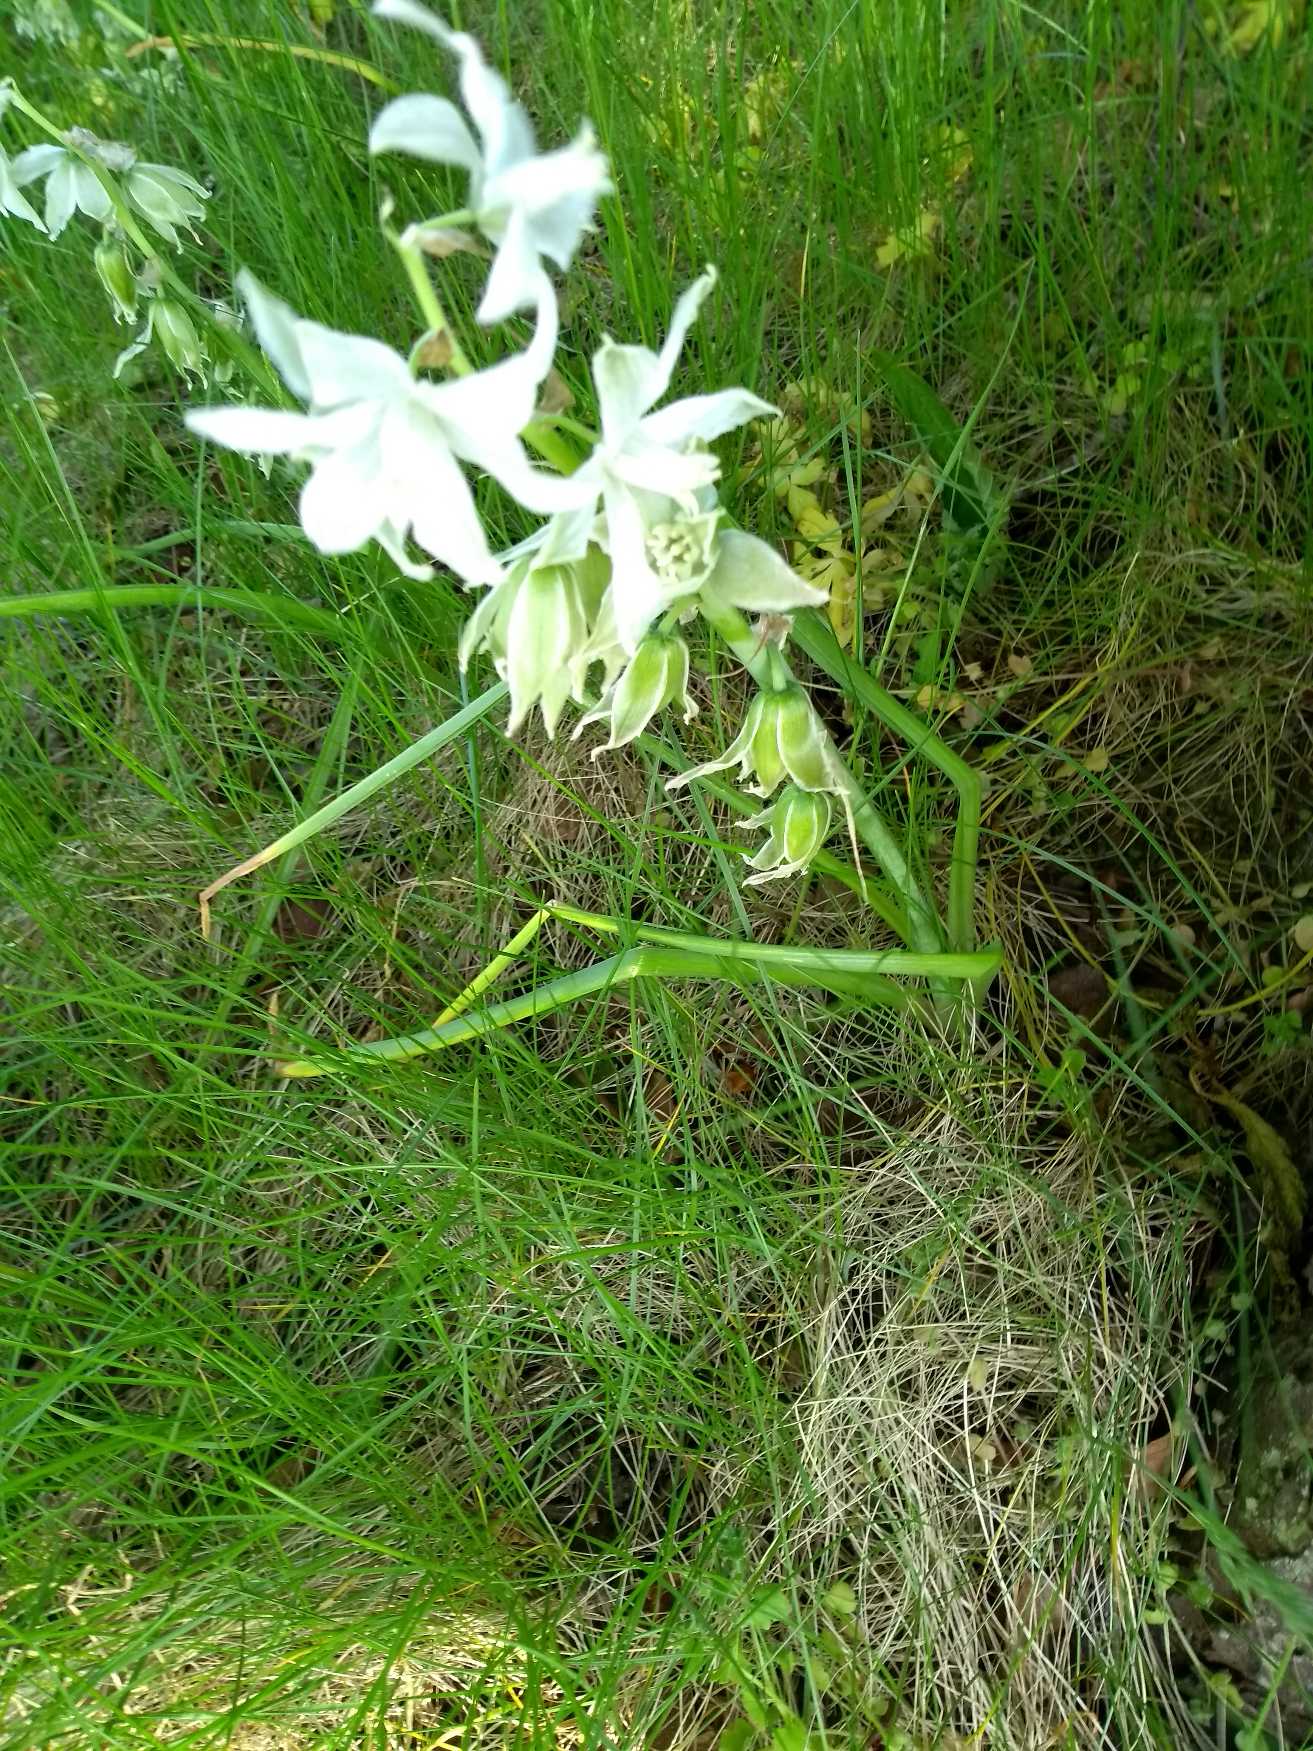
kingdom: Plantae
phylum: Tracheophyta
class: Liliopsida
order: Asparagales
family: Asparagaceae
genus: Ornithogalum
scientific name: Ornithogalum nutans
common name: Nikkende fuglemælk
